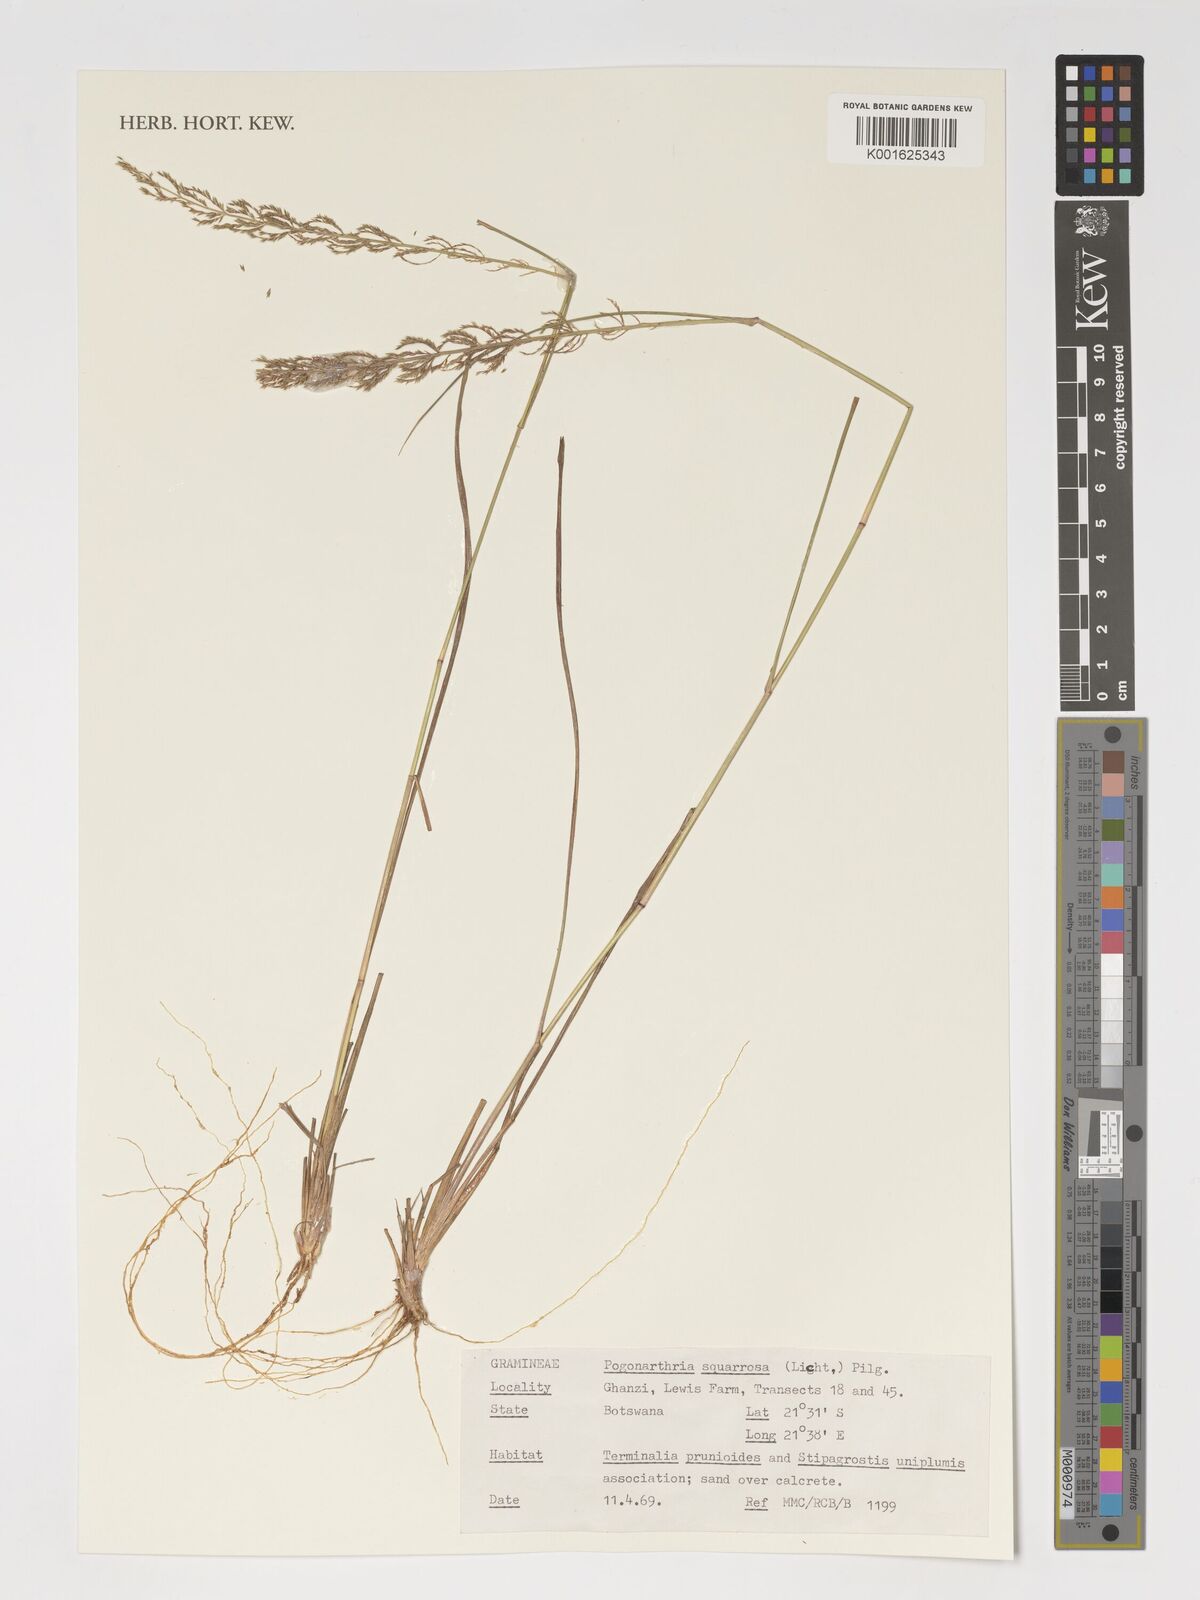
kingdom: Plantae
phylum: Tracheophyta
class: Liliopsida
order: Poales
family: Poaceae
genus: Pogonarthria
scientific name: Pogonarthria squarrosa
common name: Grass
